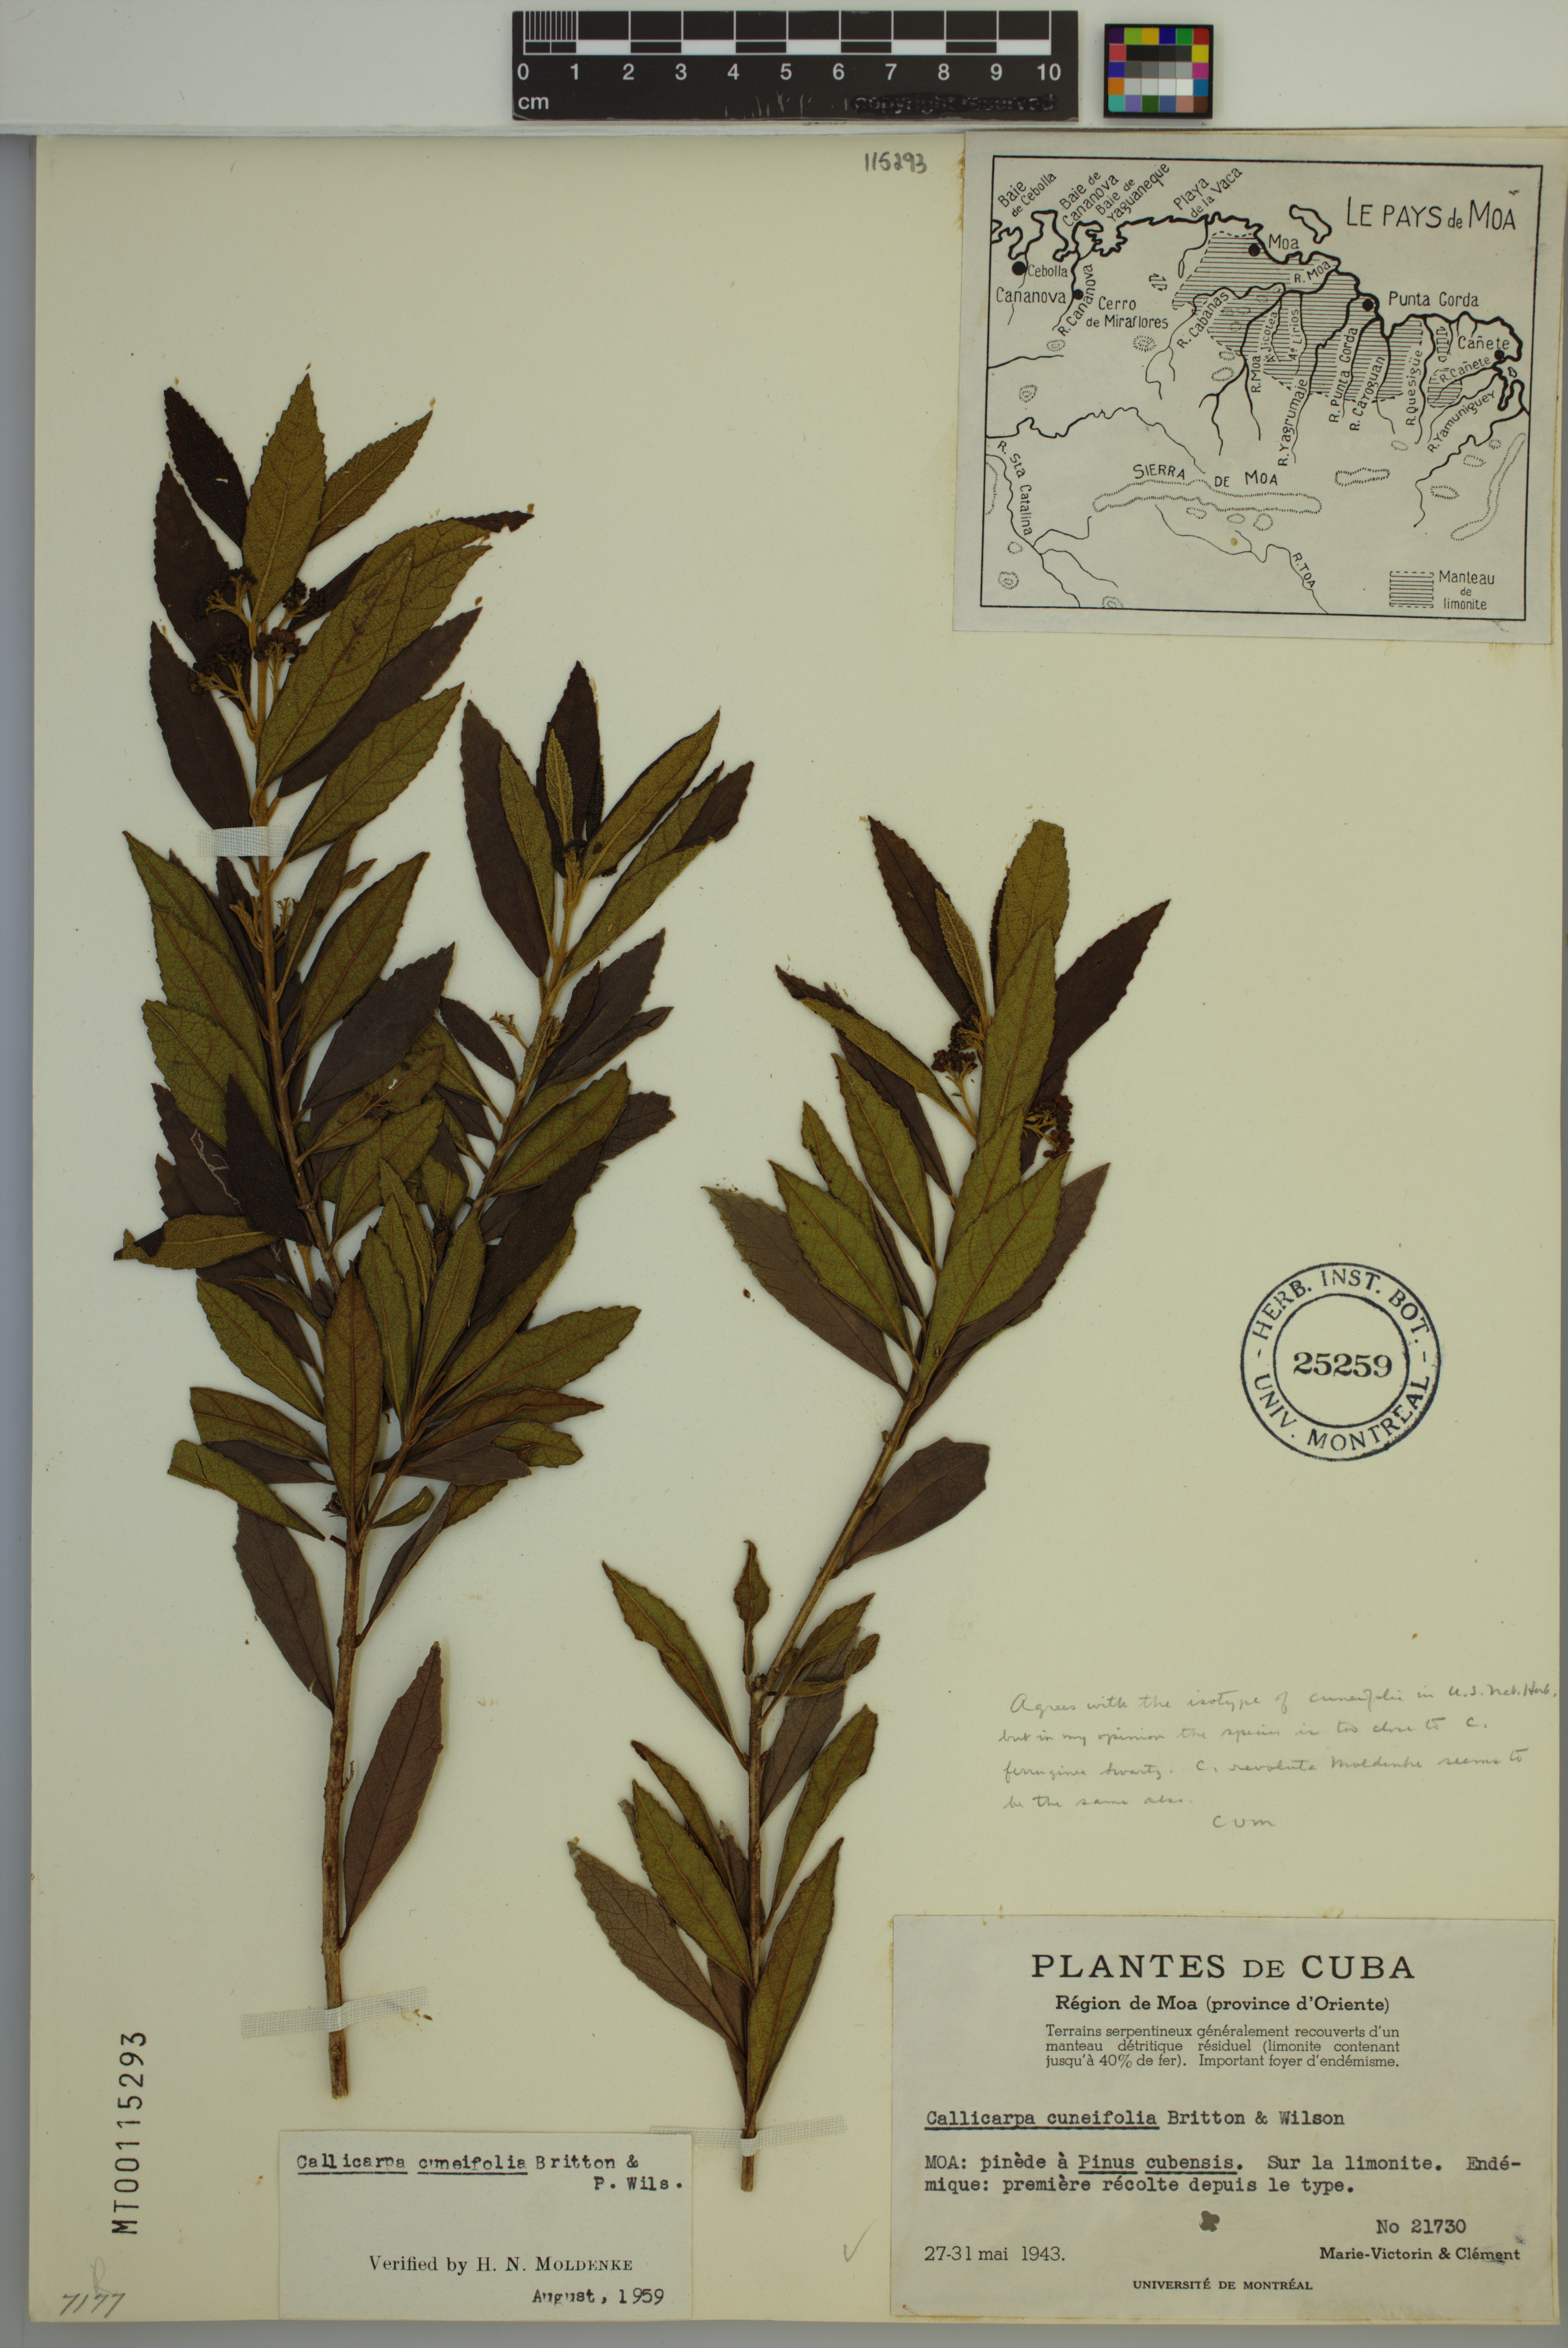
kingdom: Plantae
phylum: Tracheophyta
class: Magnoliopsida
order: Lamiales
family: Lamiaceae
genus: Callicarpa
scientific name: Callicarpa cuneifolia
